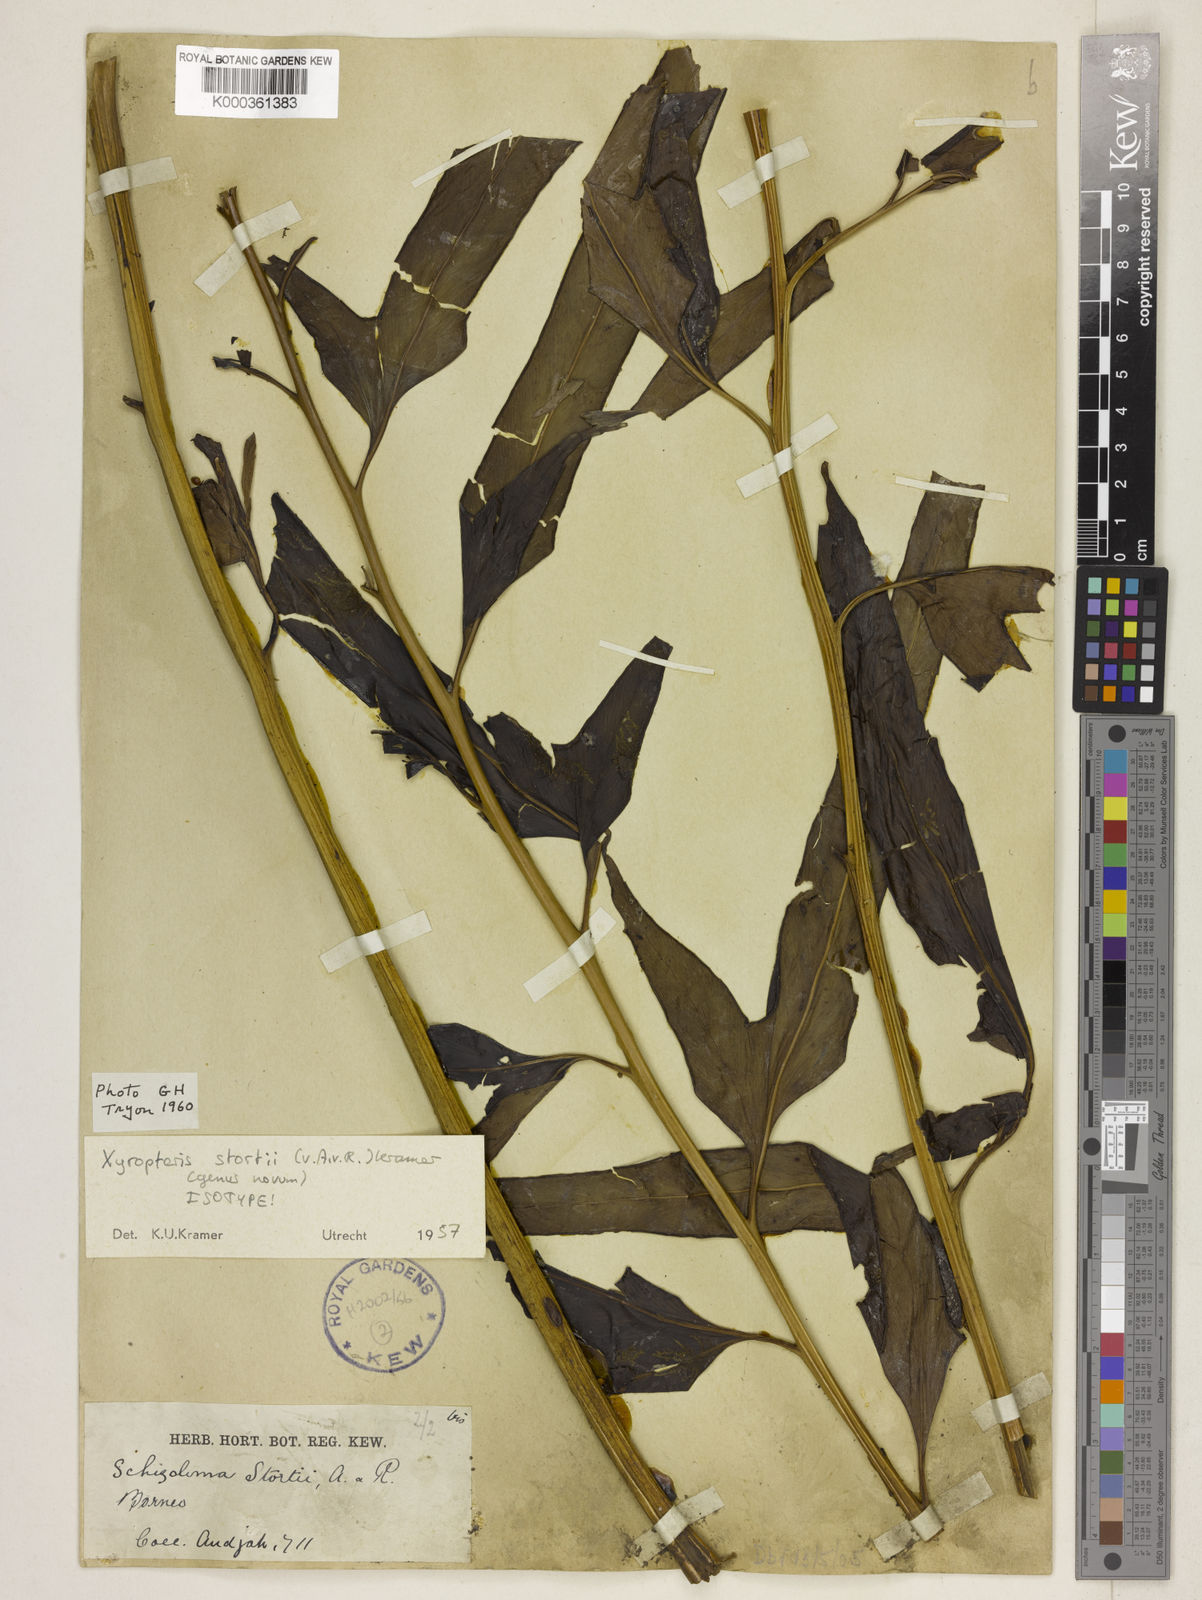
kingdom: Plantae
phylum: Tracheophyta
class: Polypodiopsida
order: Polypodiales
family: Lindsaeaceae
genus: Xyropteris
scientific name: Xyropteris stortii
